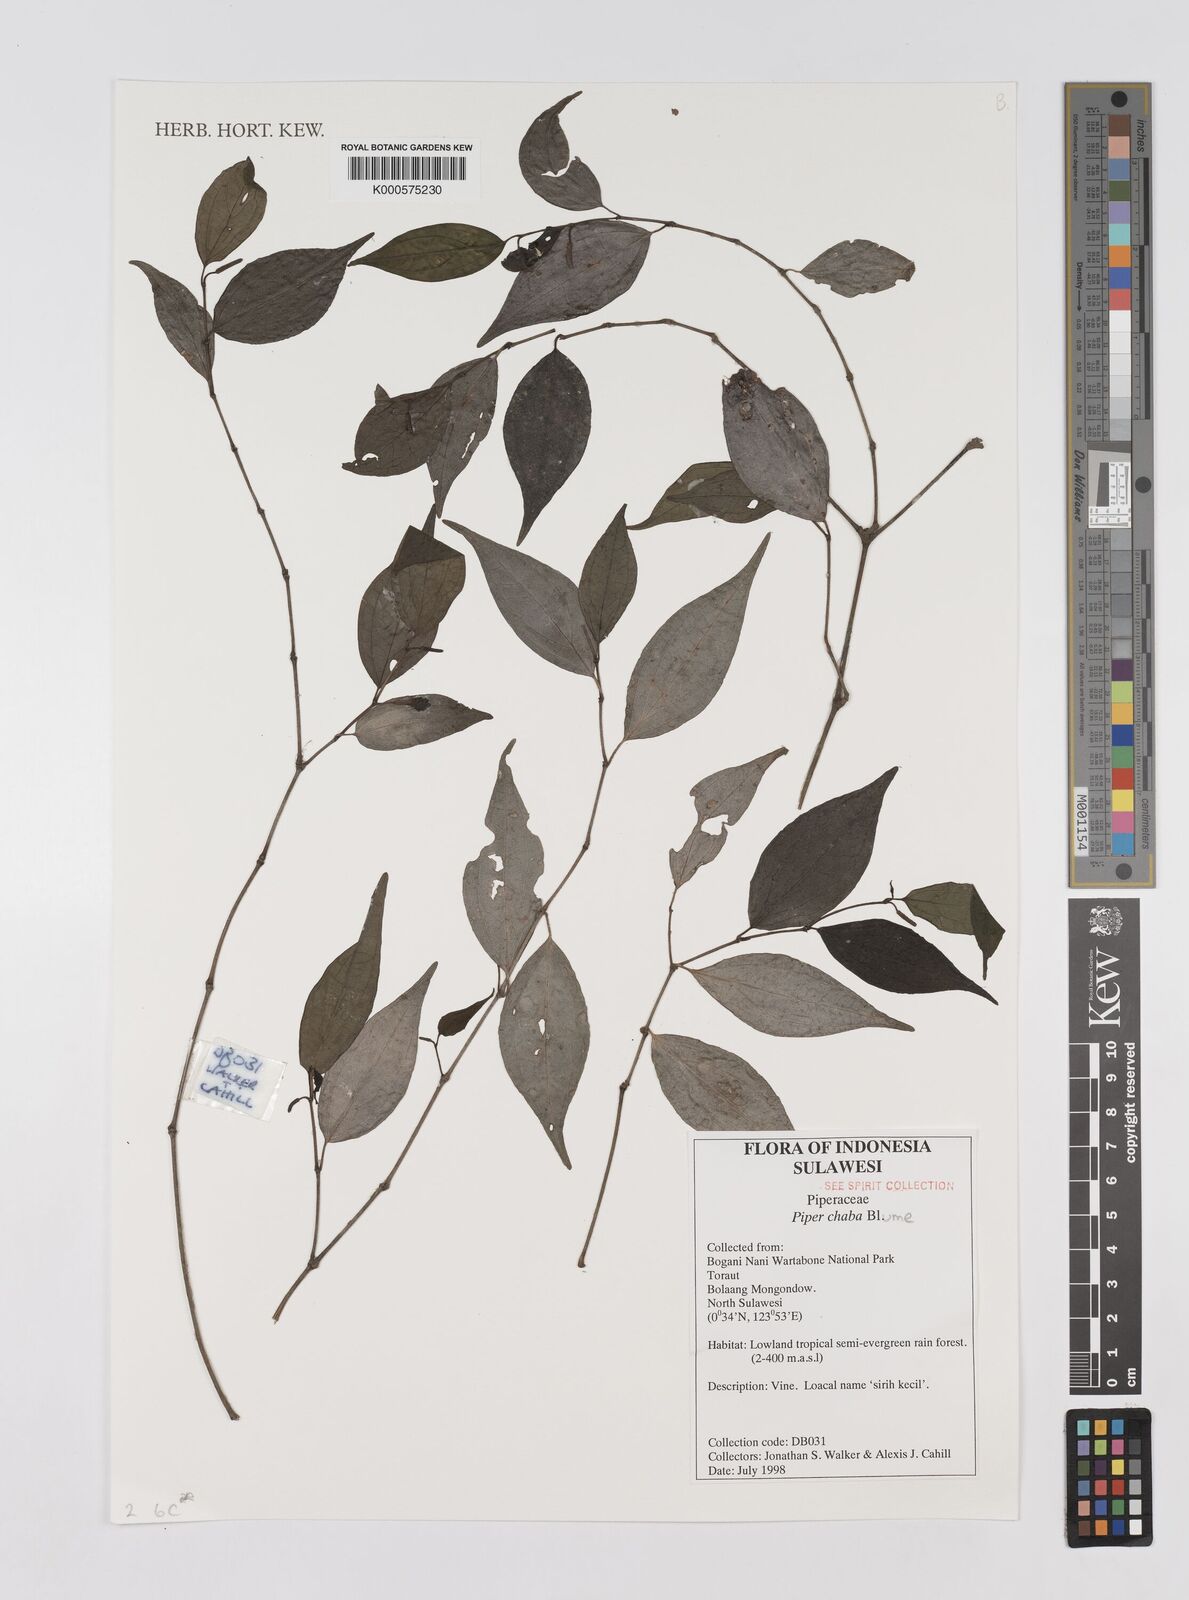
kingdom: Plantae
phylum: Tracheophyta
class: Magnoliopsida
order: Piperales
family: Piperaceae
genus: Piper
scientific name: Piper chaba
